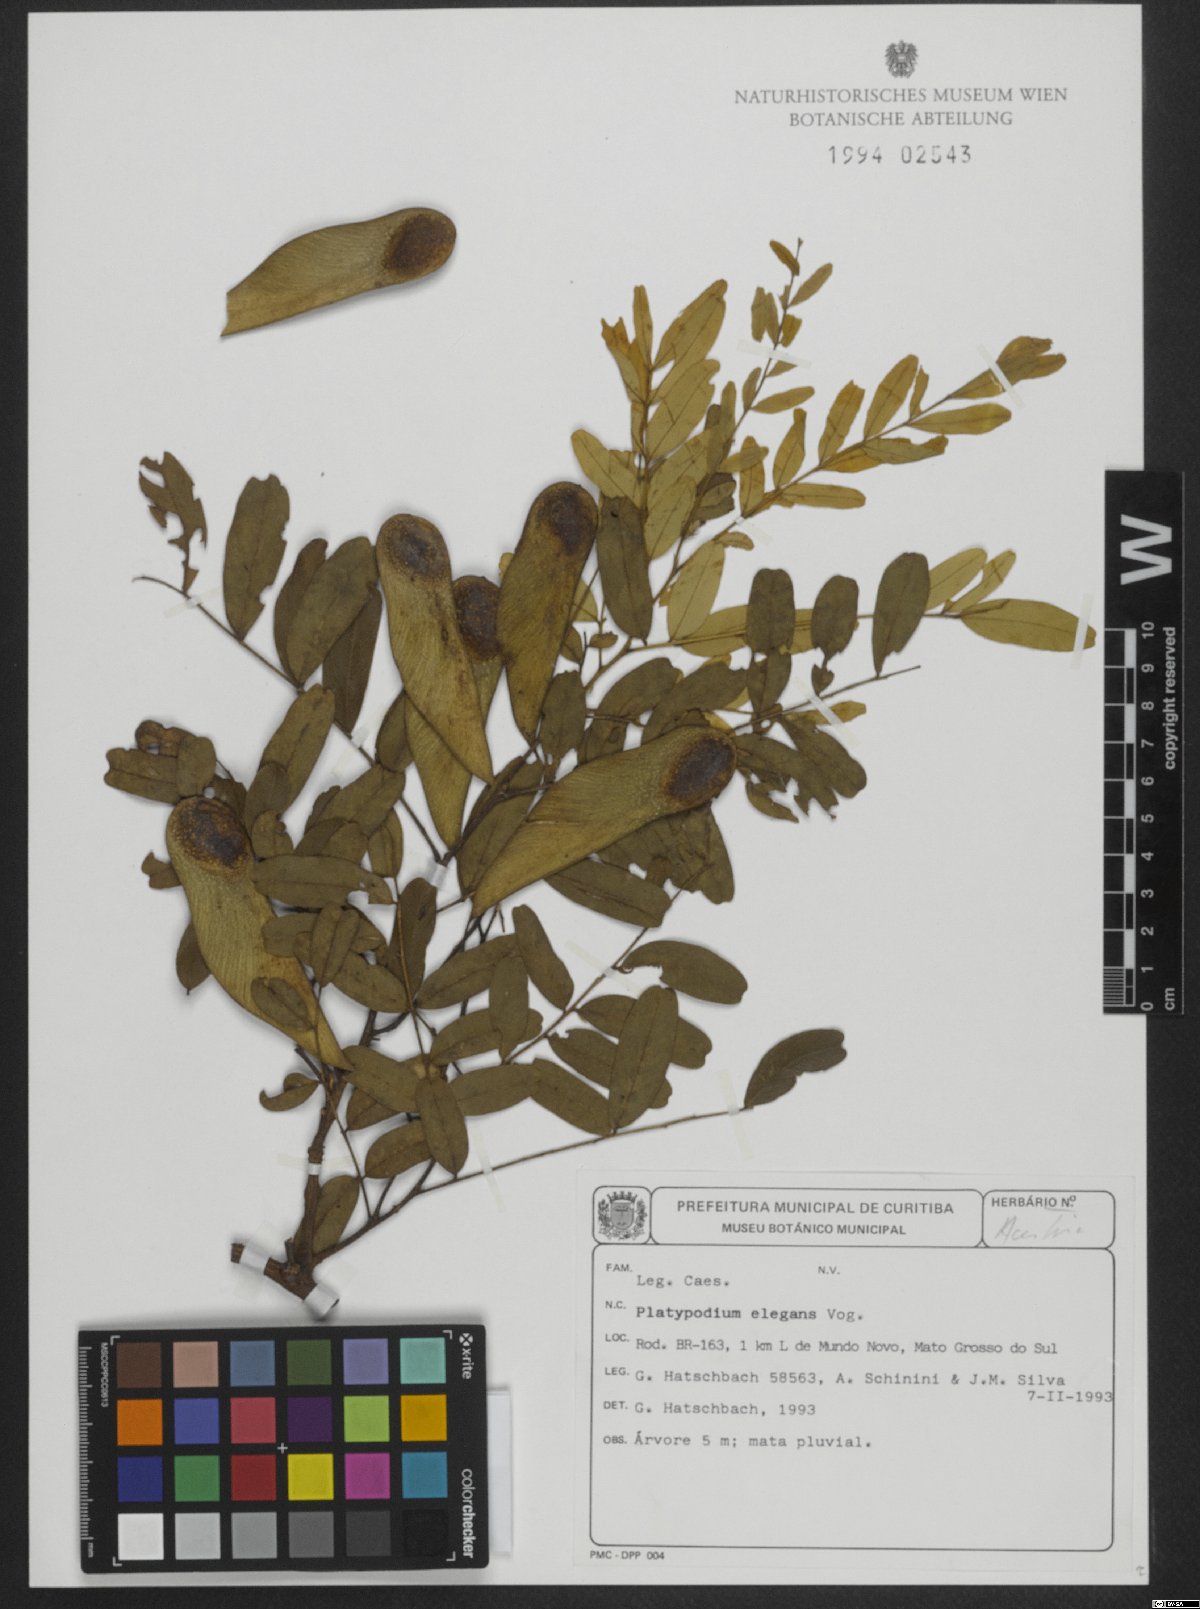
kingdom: Plantae
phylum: Tracheophyta
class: Magnoliopsida
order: Fabales
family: Fabaceae
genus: Platypodium
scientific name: Platypodium elegans
